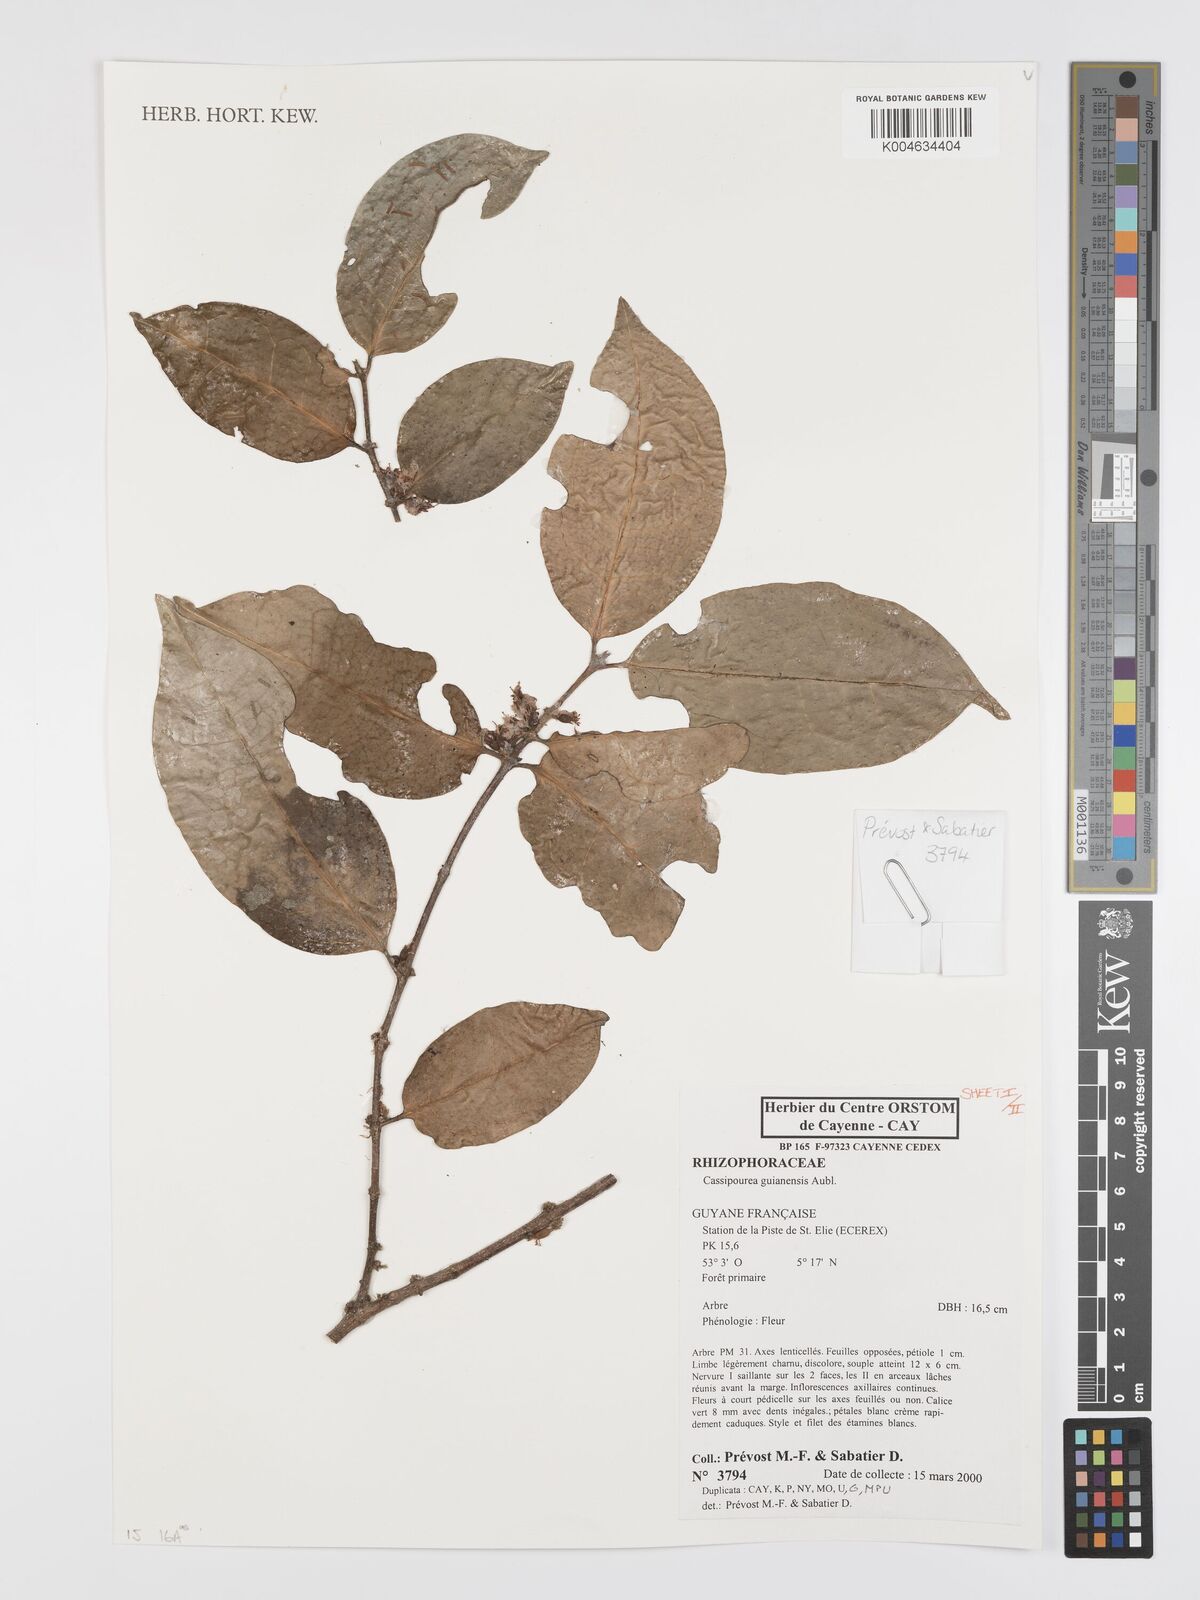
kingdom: Plantae
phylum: Tracheophyta
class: Magnoliopsida
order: Malpighiales
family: Rhizophoraceae
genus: Cassipourea
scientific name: Cassipourea guianensis
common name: Bastard waterwood
